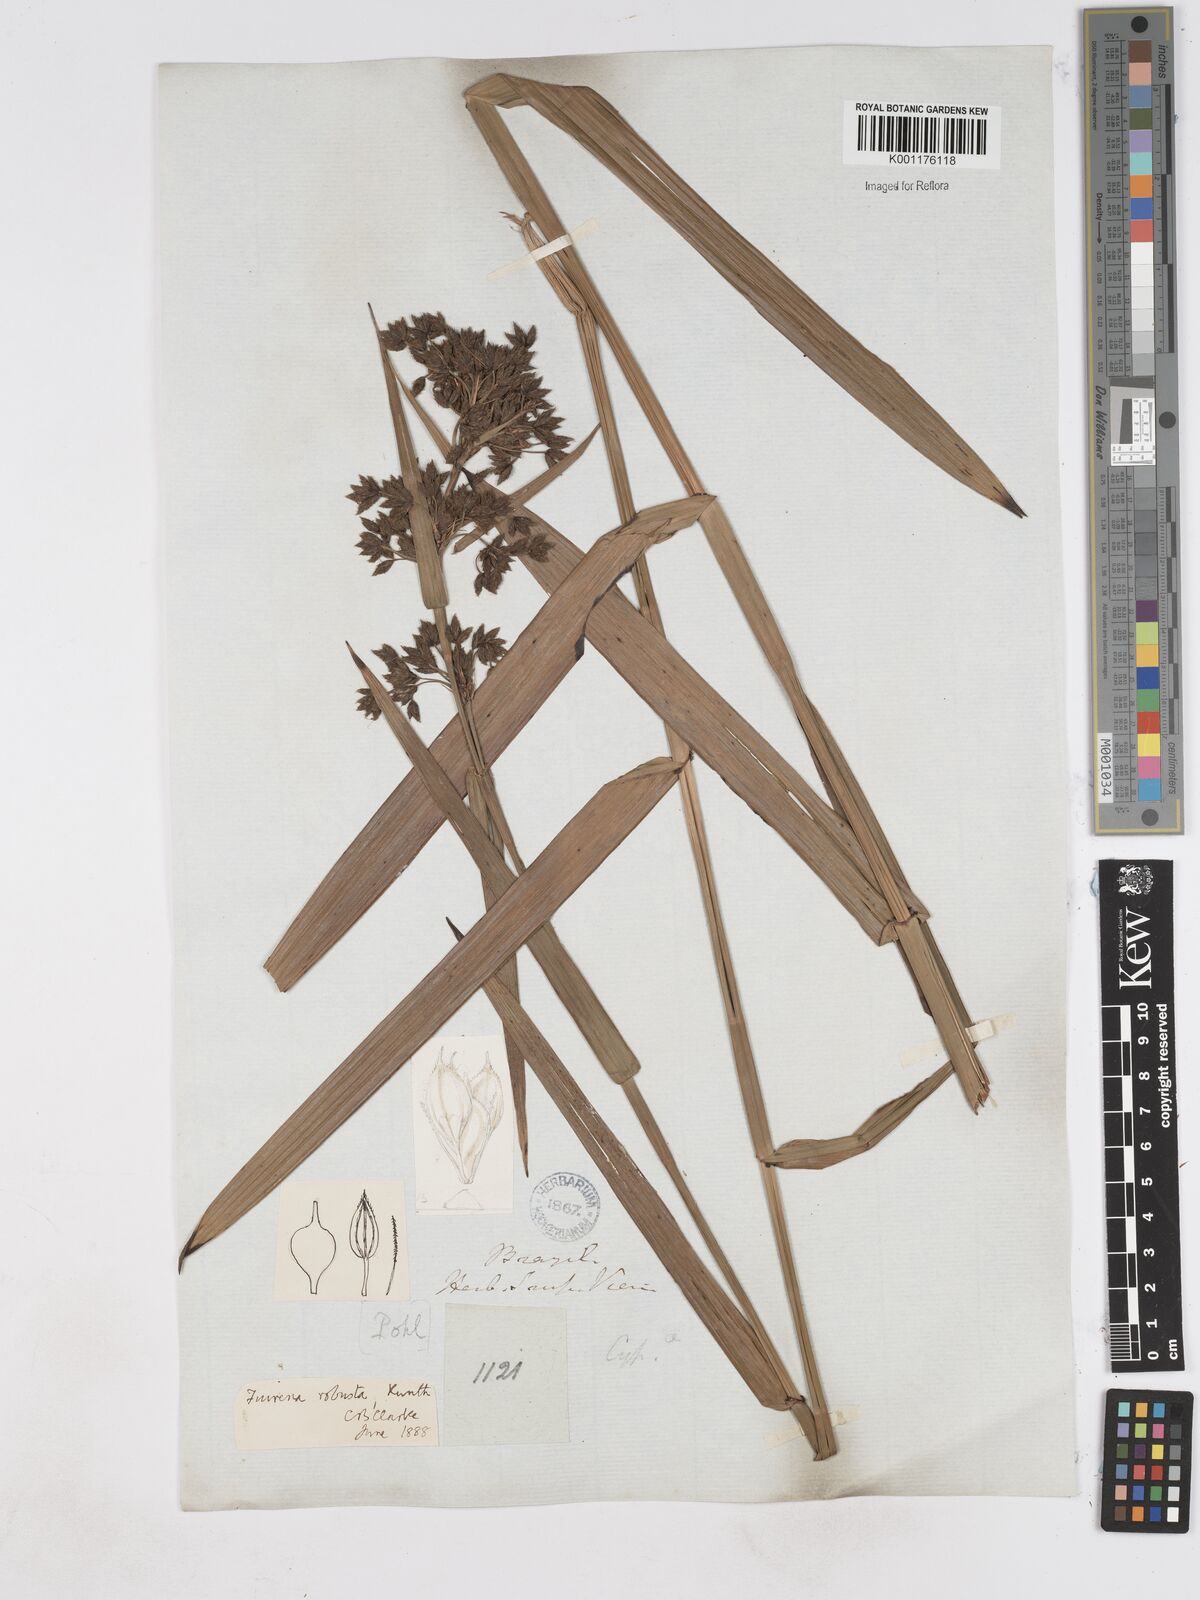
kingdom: Plantae
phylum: Tracheophyta
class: Liliopsida
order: Poales
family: Cyperaceae
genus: Fuirena
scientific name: Fuirena robusta
